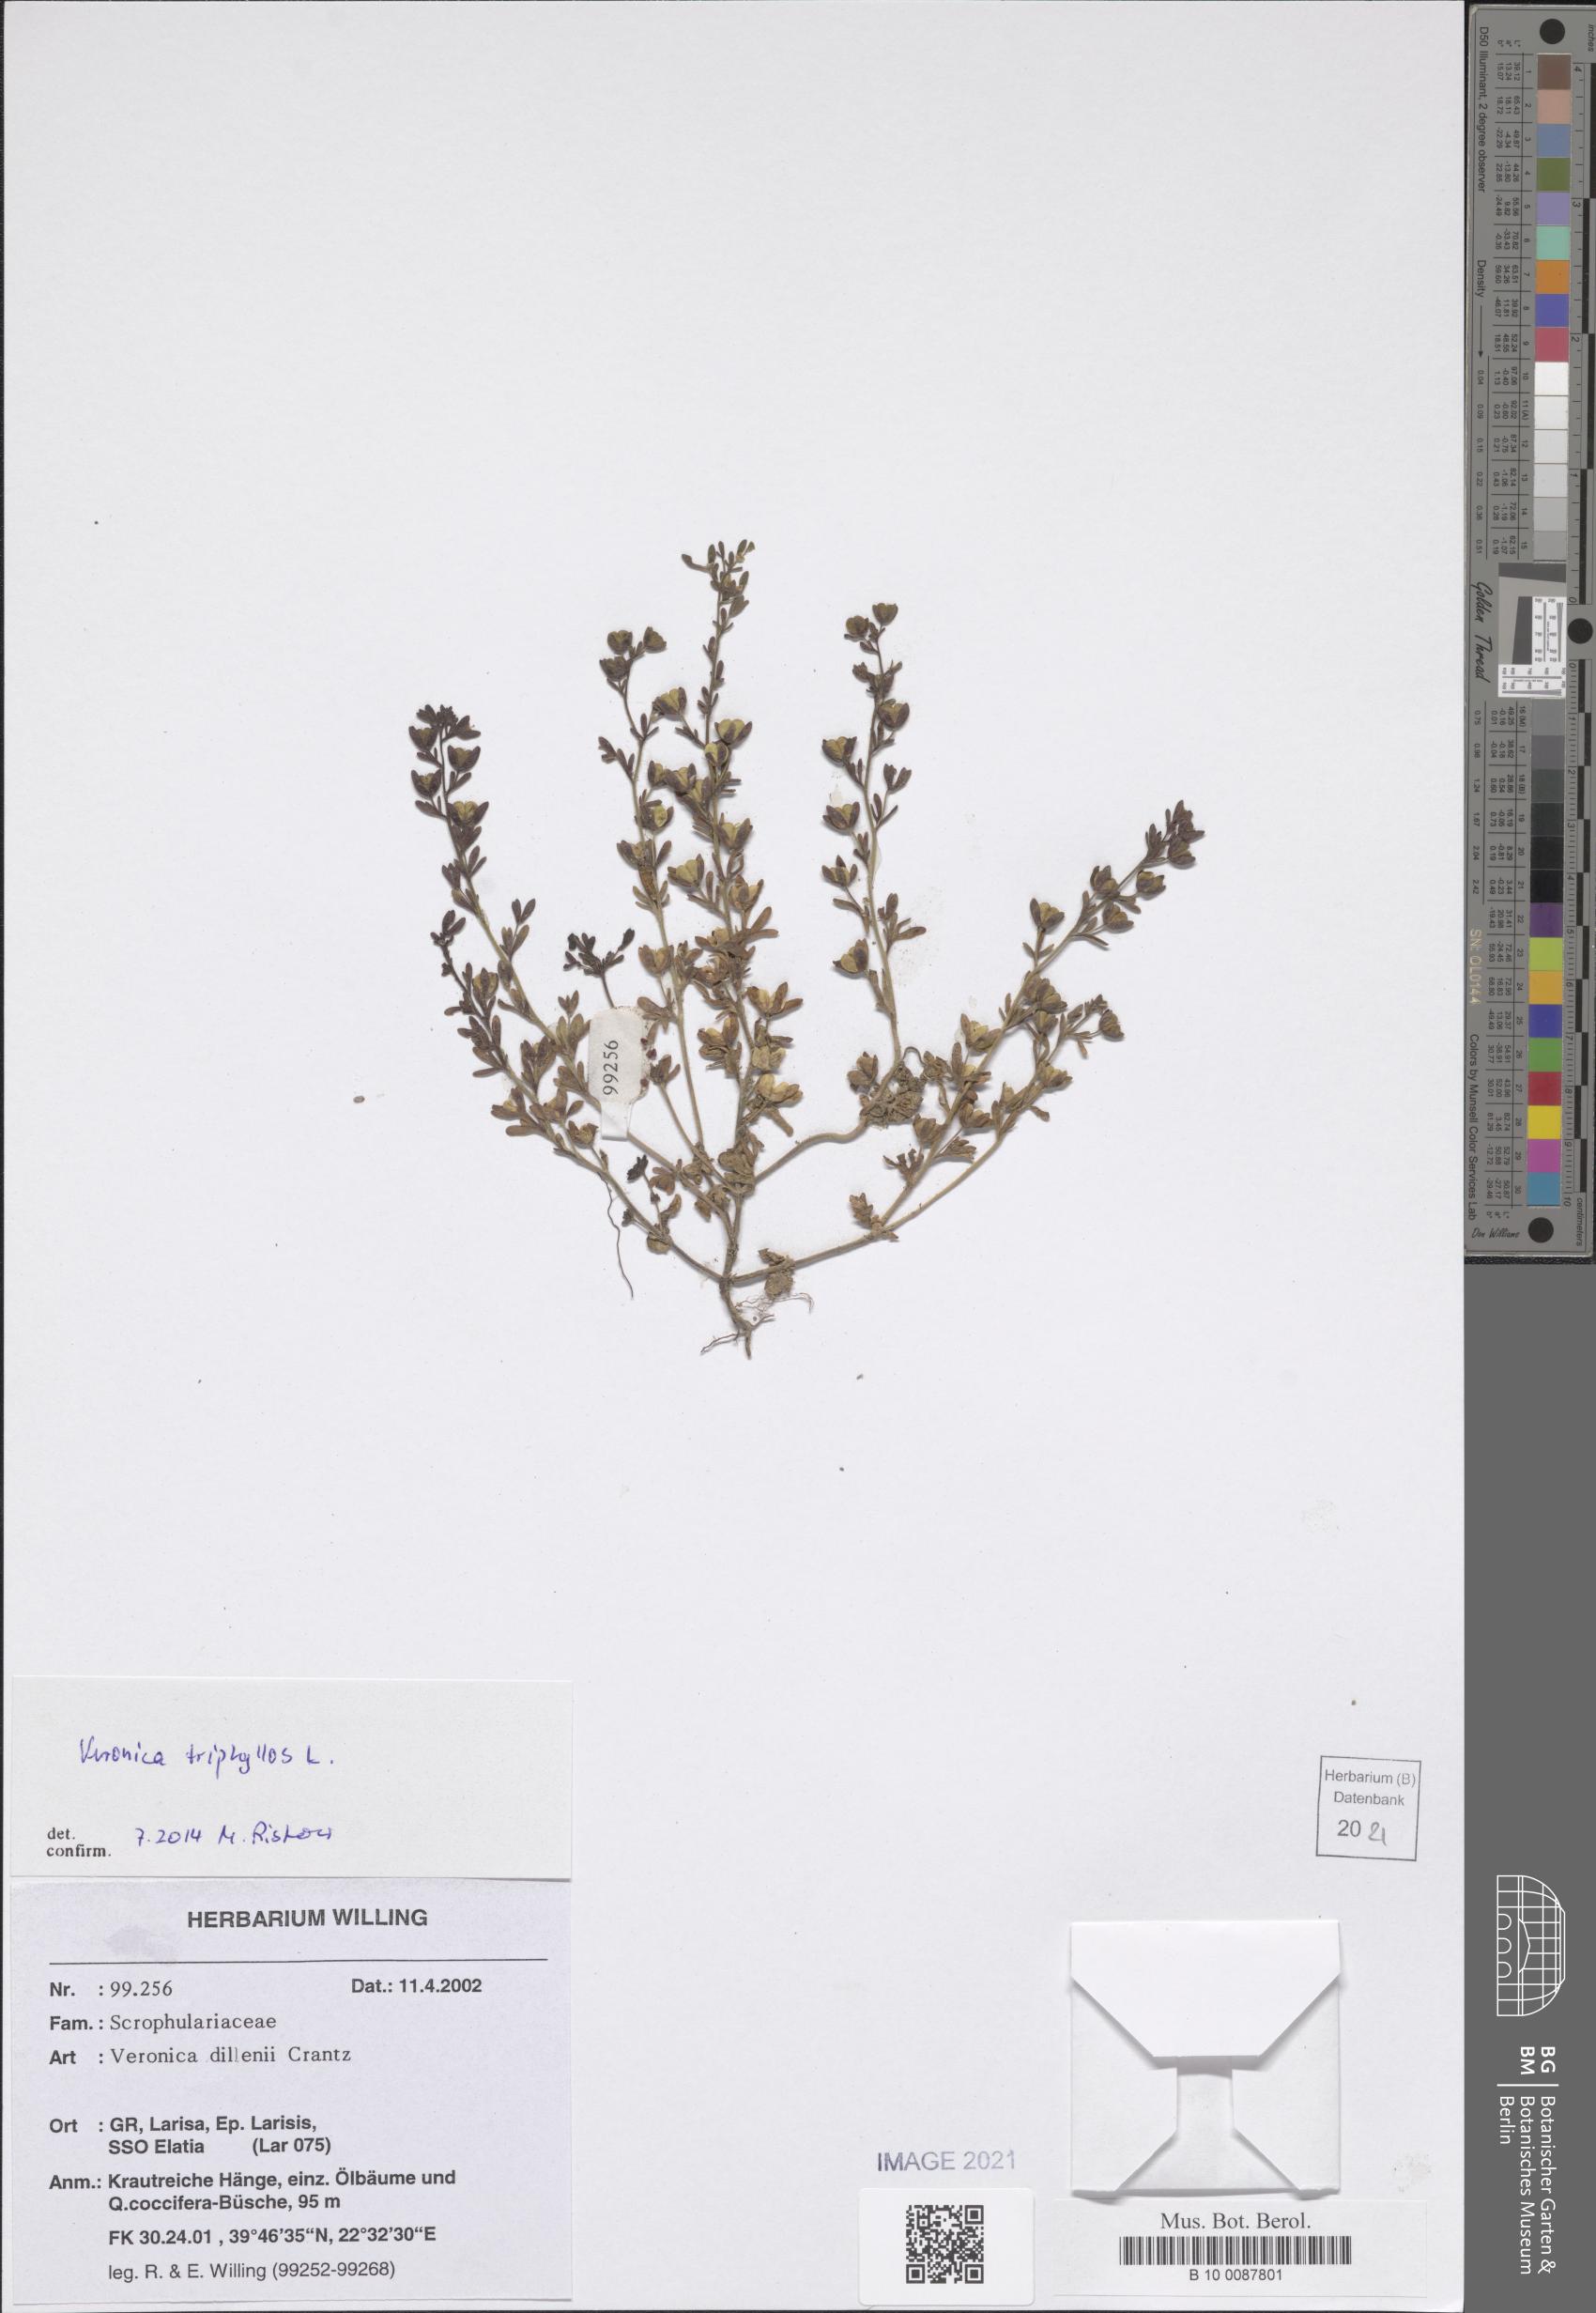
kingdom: Plantae
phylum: Tracheophyta
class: Magnoliopsida
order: Lamiales
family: Plantaginaceae
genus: Veronica
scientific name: Veronica triphyllos
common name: Fingered speedwell
